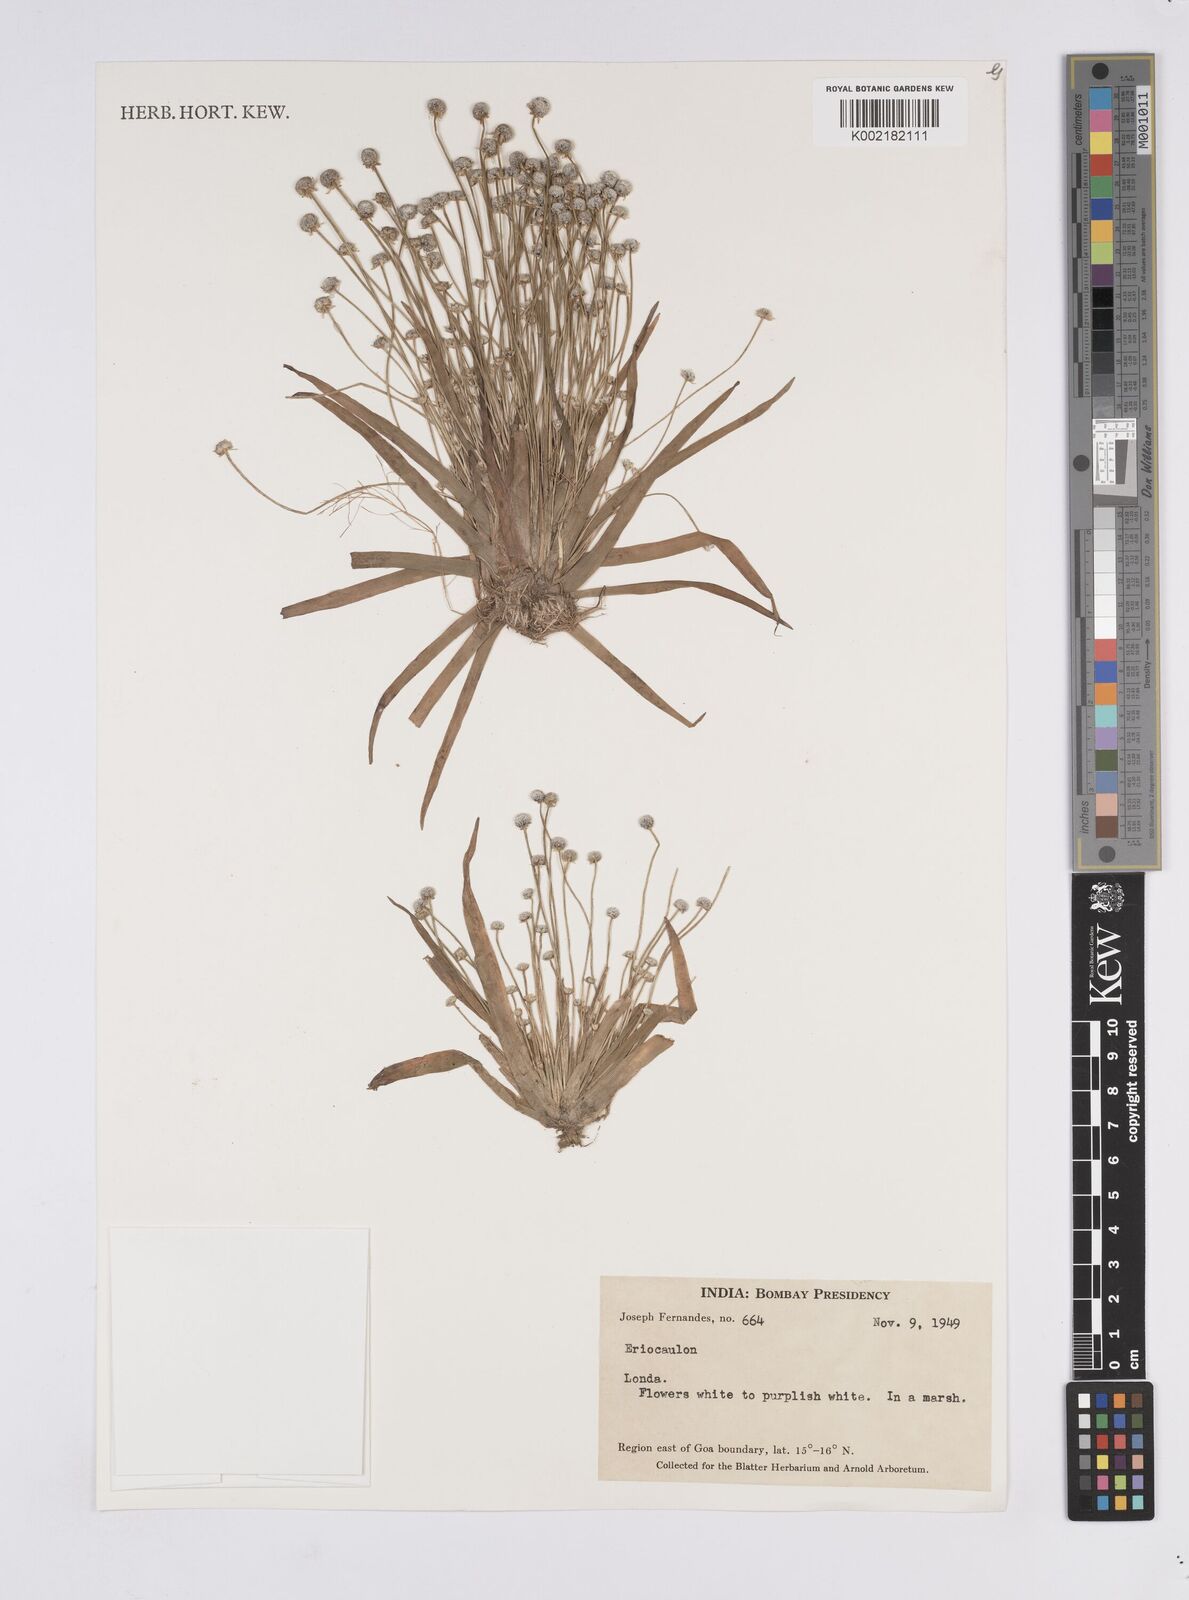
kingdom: Plantae
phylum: Tracheophyta
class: Liliopsida
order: Poales
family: Eriocaulaceae
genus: Eriocaulon
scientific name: Eriocaulon
